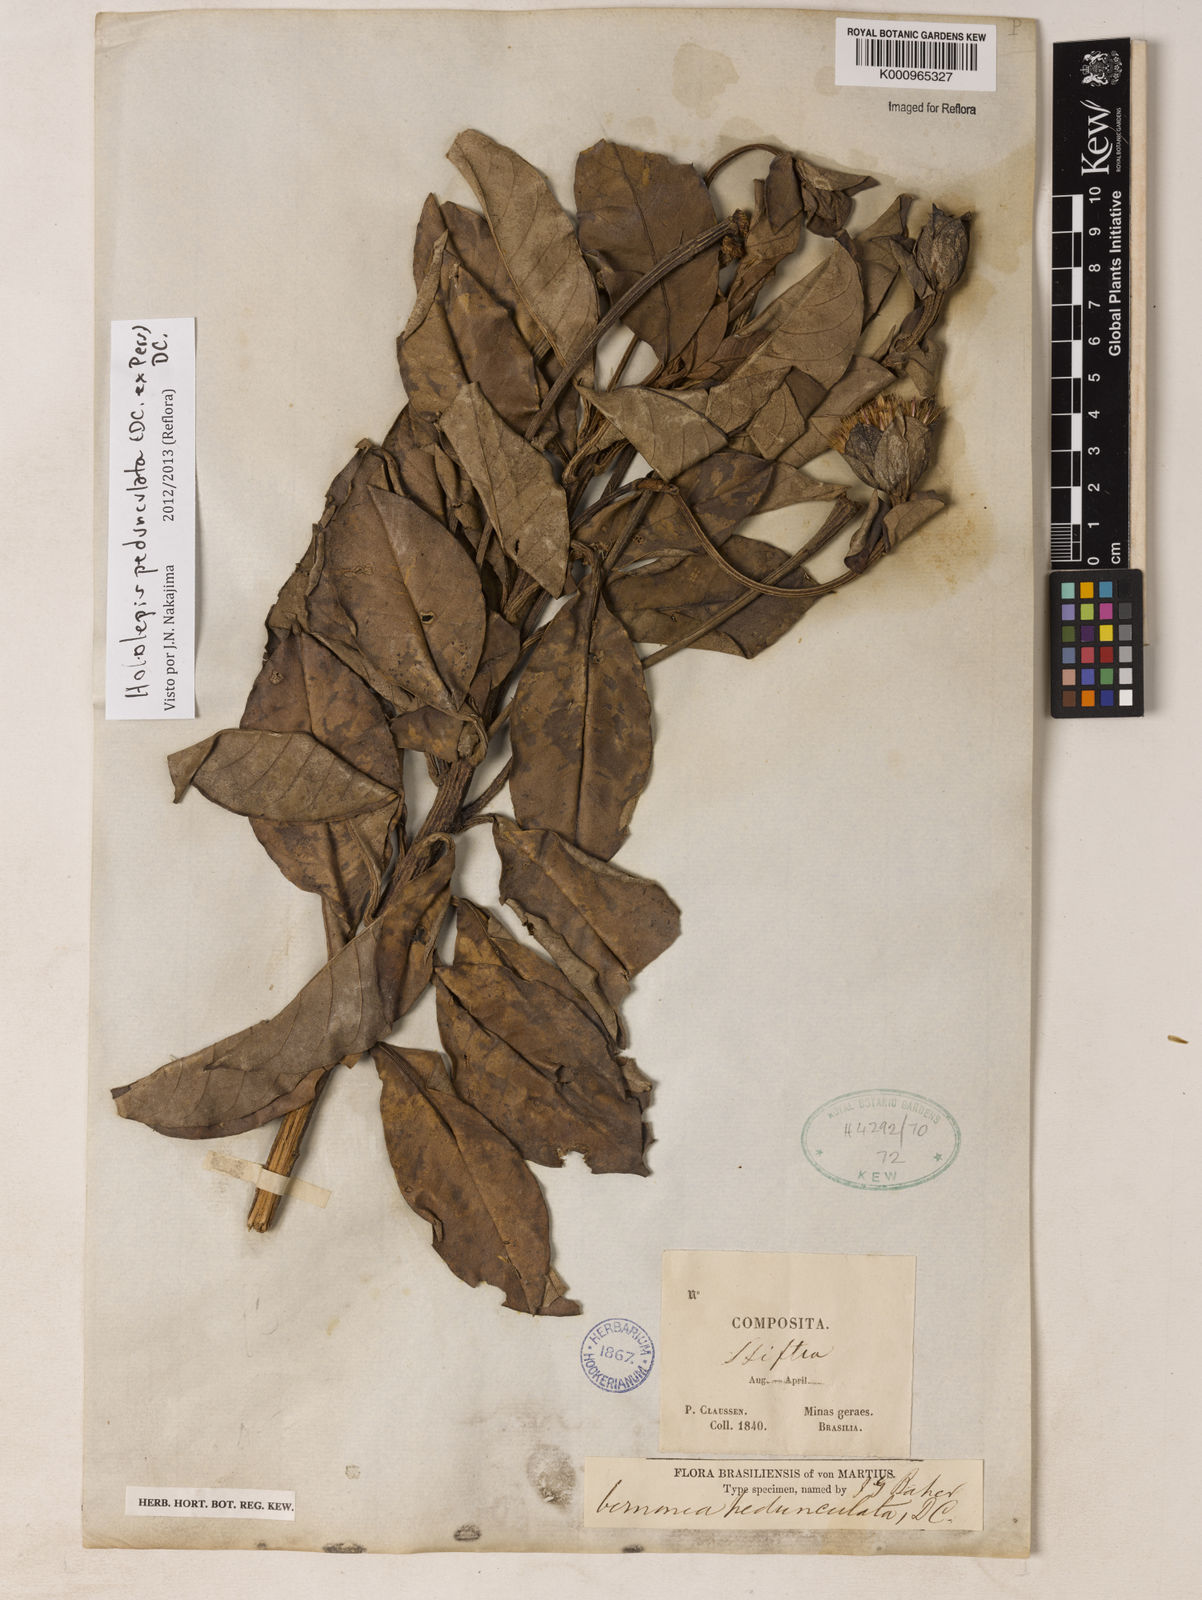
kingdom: Plantae
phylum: Tracheophyta
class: Magnoliopsida
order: Asterales
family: Asteraceae
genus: Hololepis
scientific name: Hololepis pedunculata
